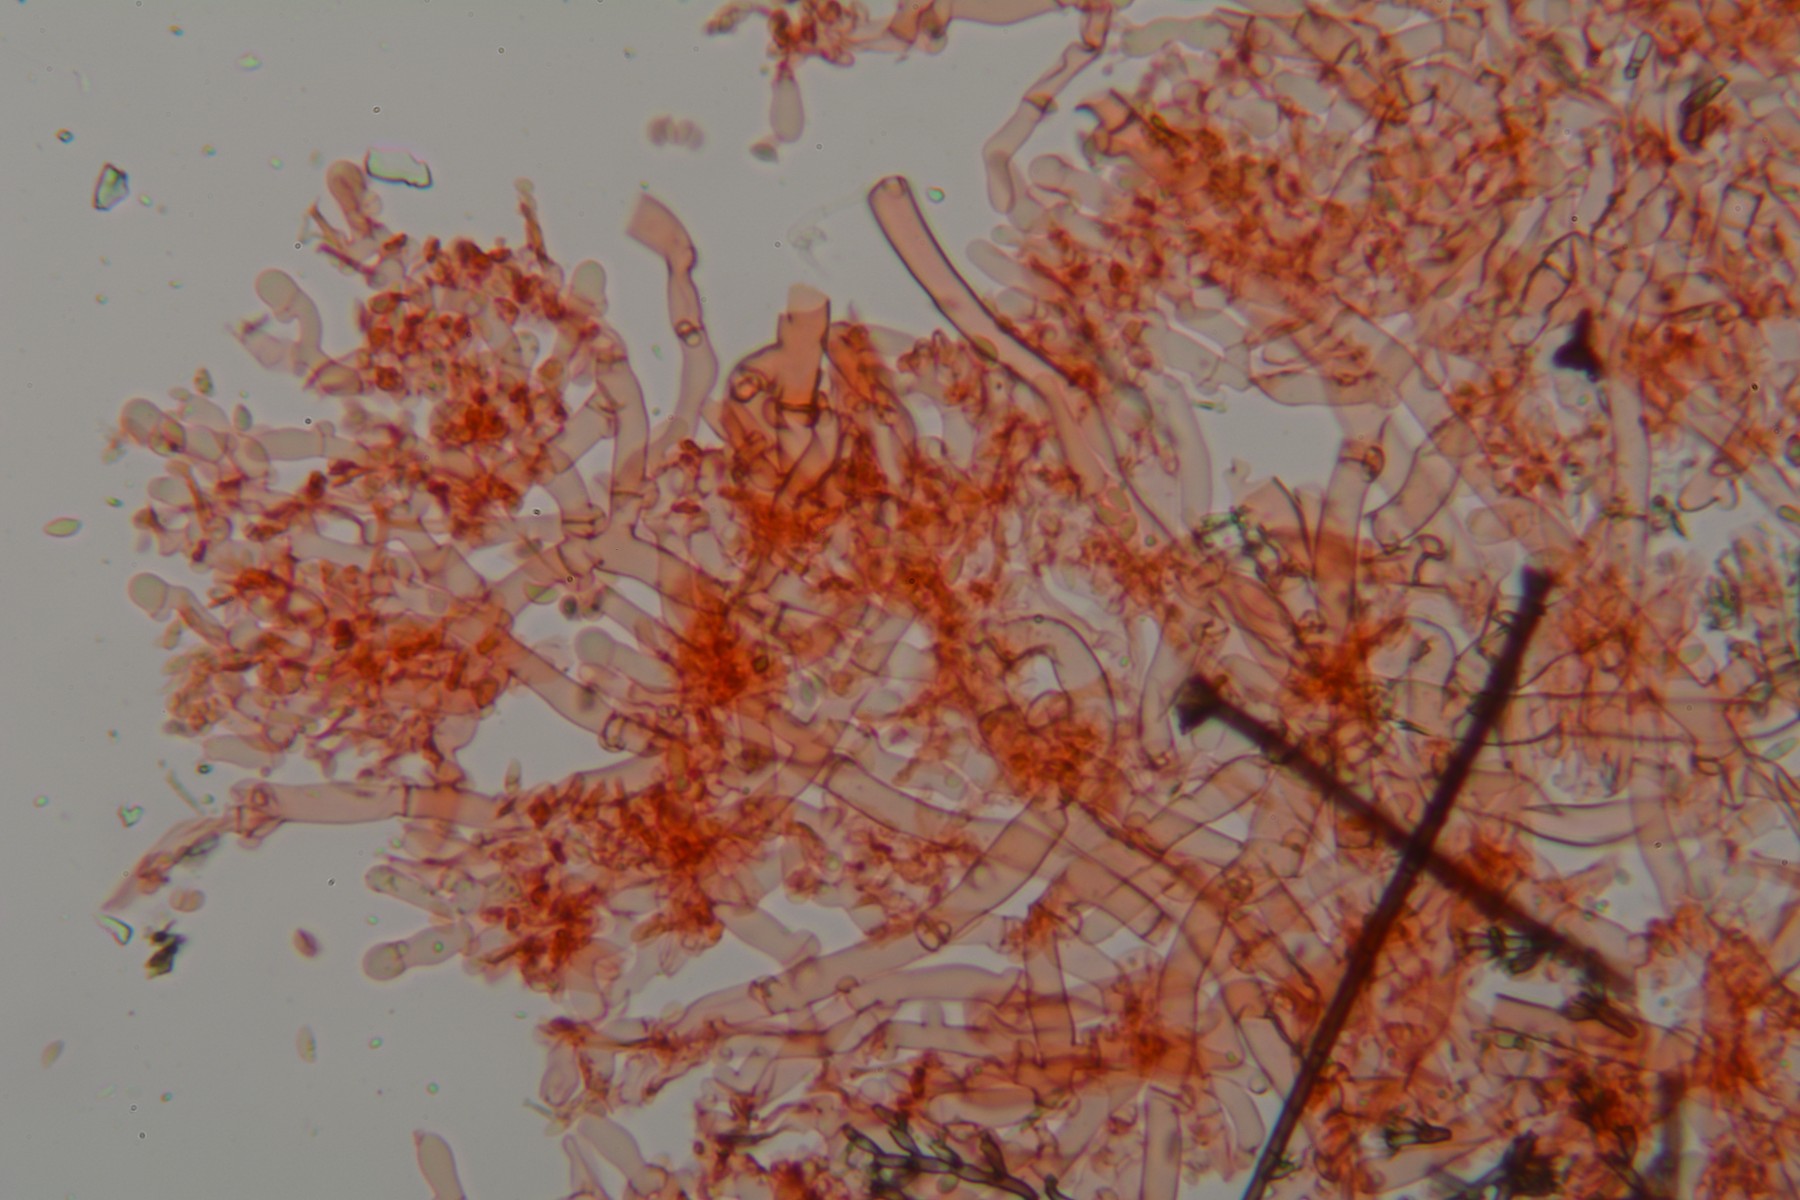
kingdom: Fungi
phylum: Basidiomycota
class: Agaricomycetes
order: Cantharellales
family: Botryobasidiaceae
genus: Botryobasidium
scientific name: Botryobasidium subcoronatum
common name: almindelig spindhinde
